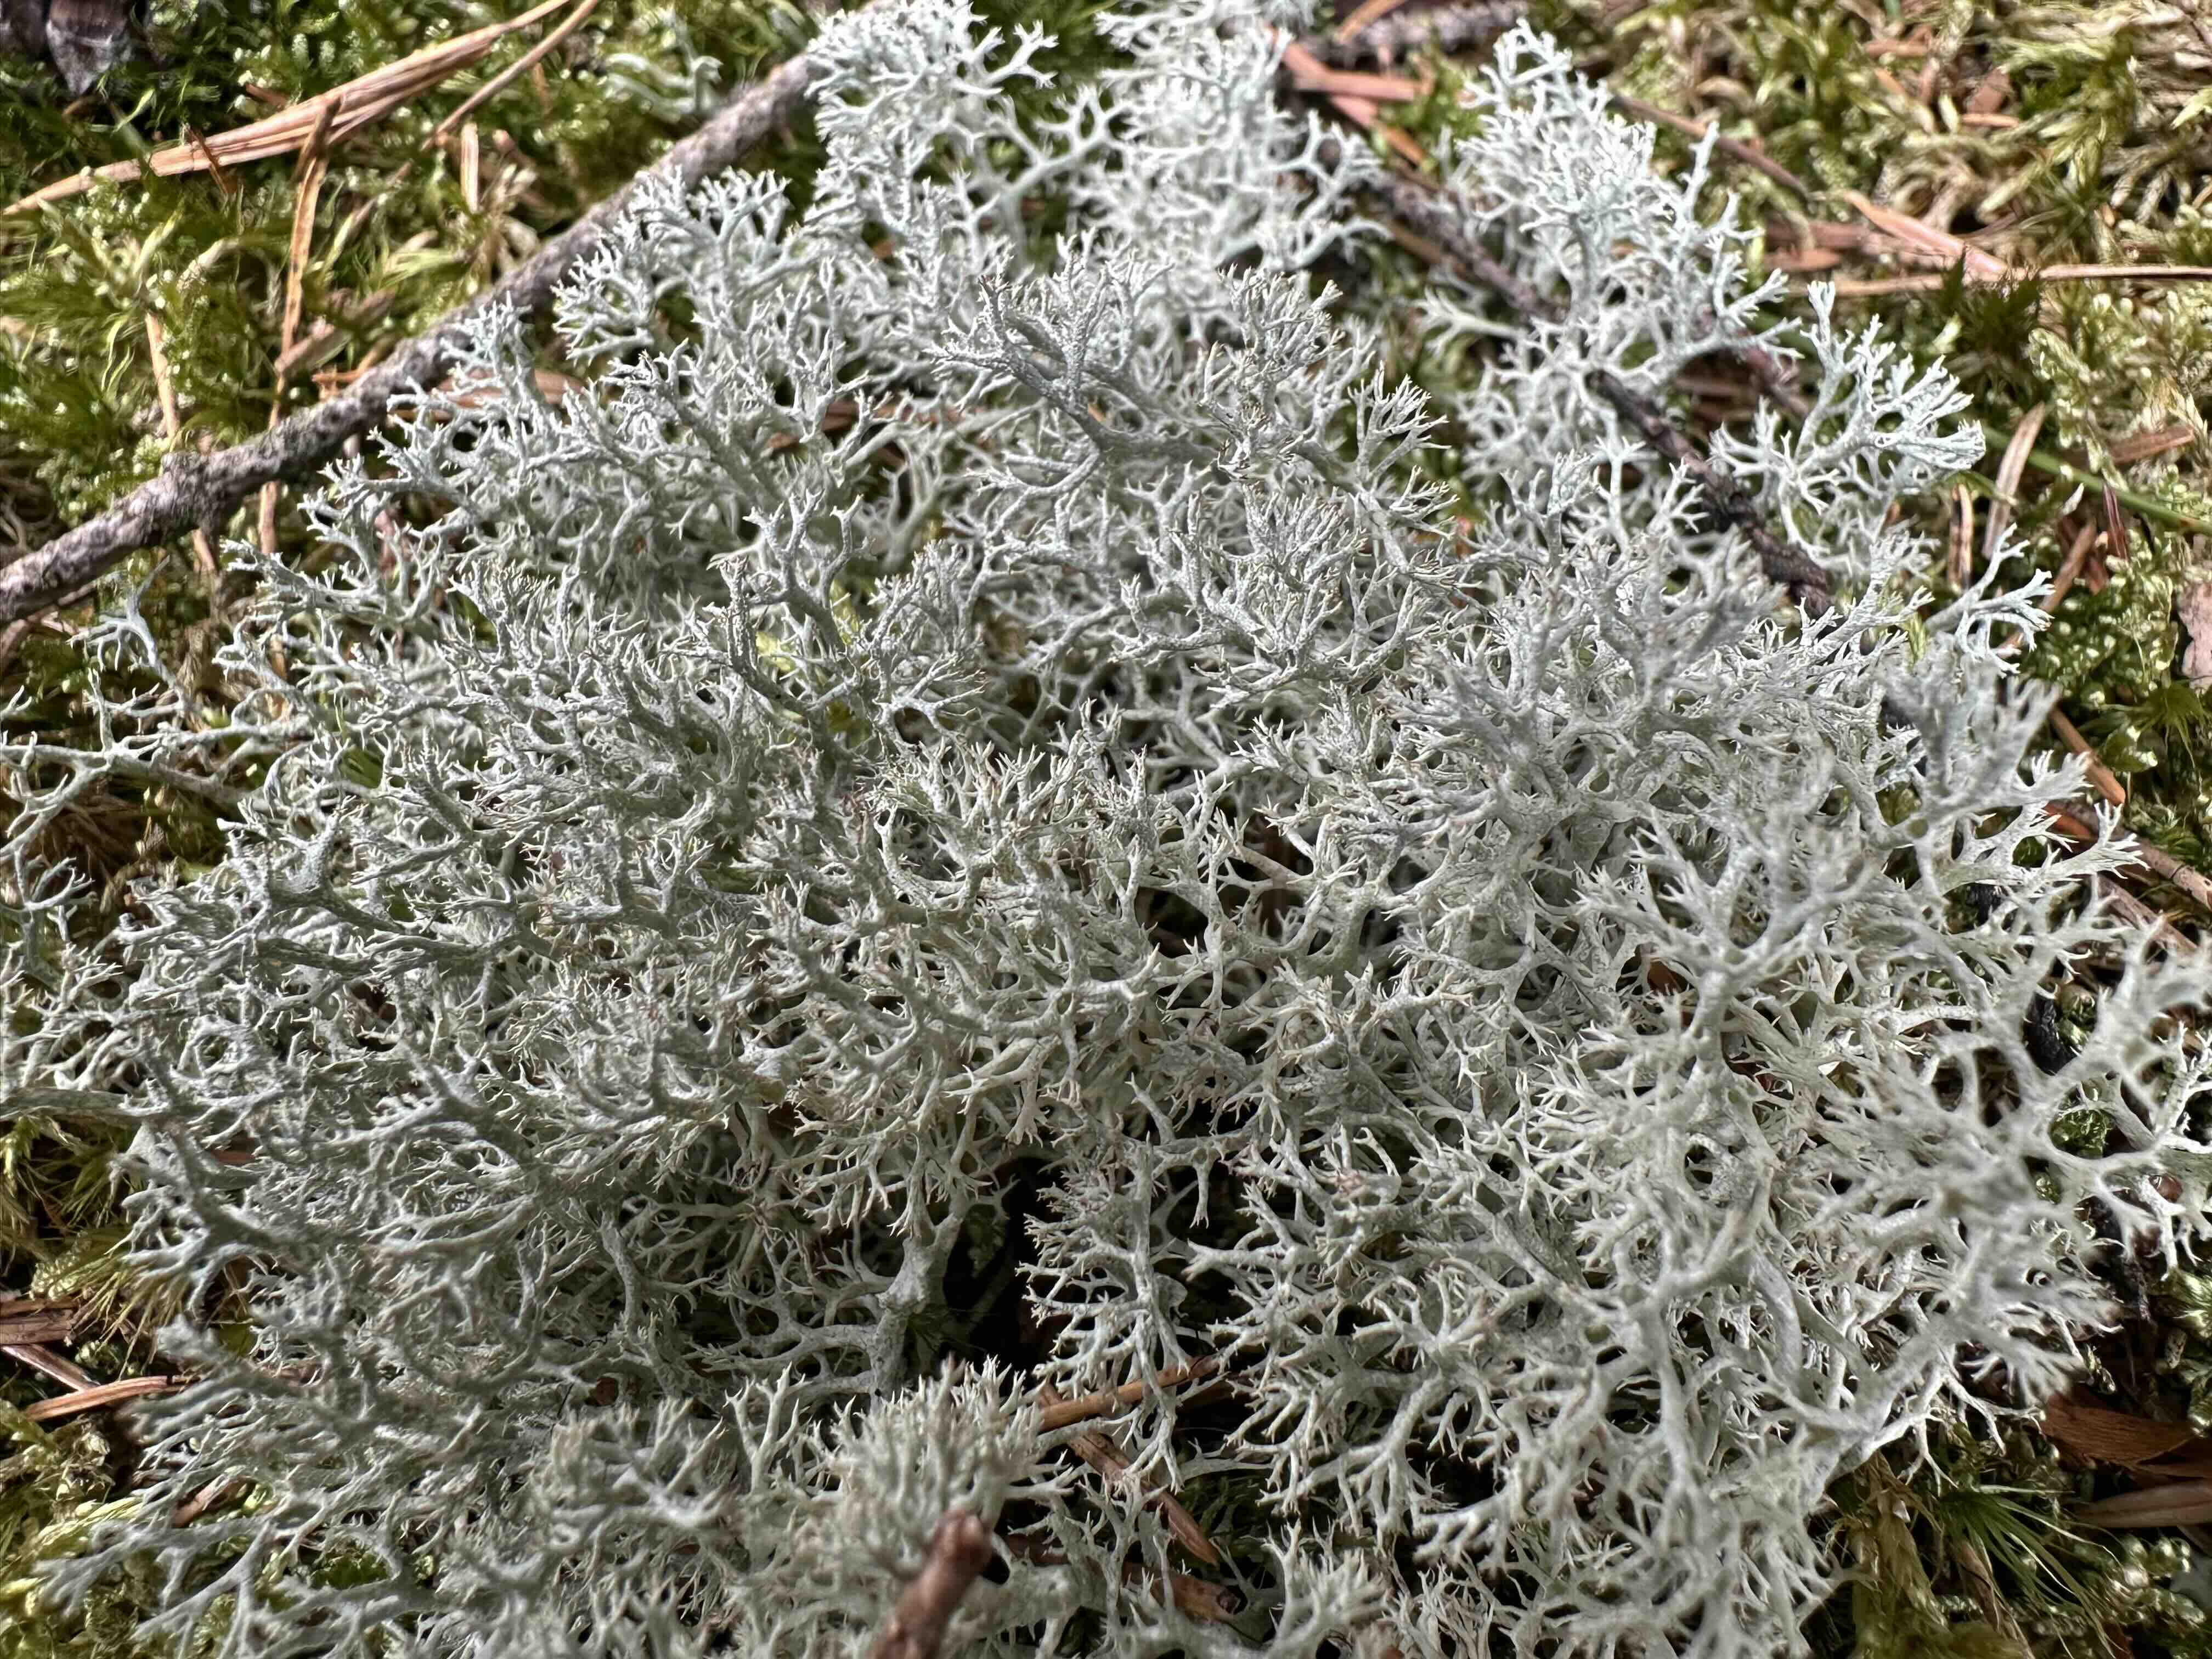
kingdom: Fungi
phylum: Ascomycota
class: Lecanoromycetes
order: Lecanorales
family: Cladoniaceae
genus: Cladonia
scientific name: Cladonia portentosa
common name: hede-rensdyrlav
